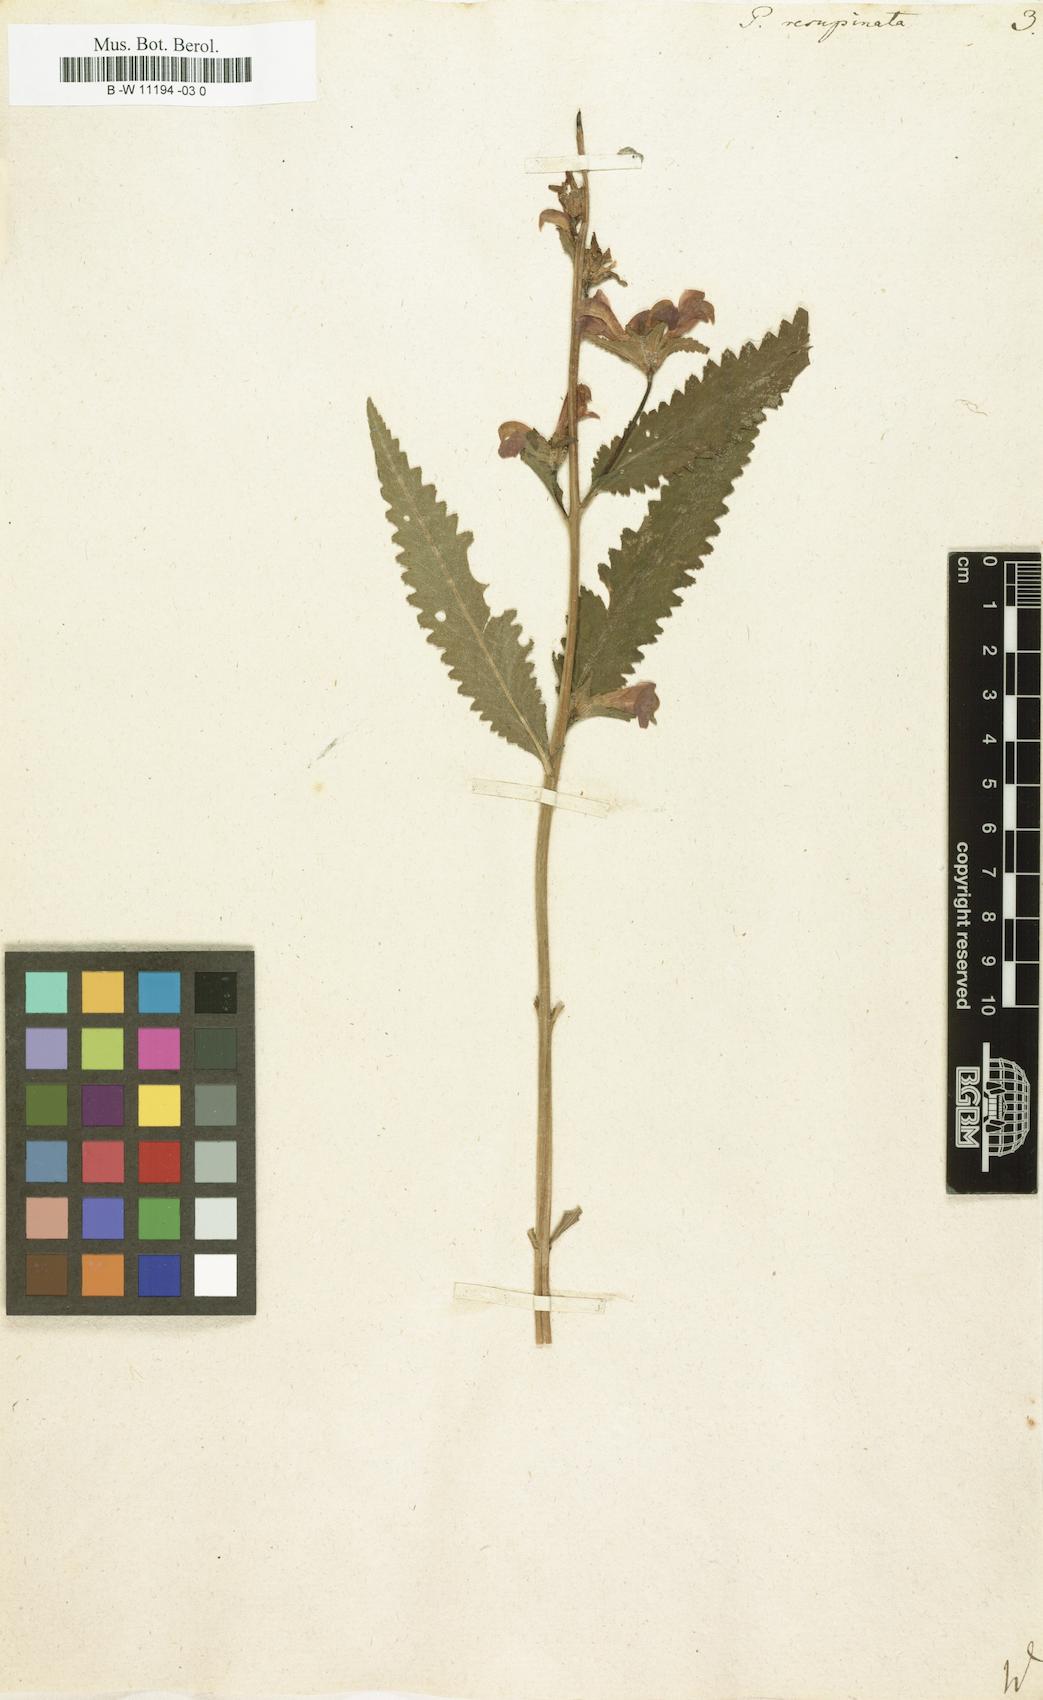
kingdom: Plantae
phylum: Tracheophyta
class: Magnoliopsida
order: Lamiales
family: Orobanchaceae
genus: Pedicularis
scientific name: Pedicularis resupinata
